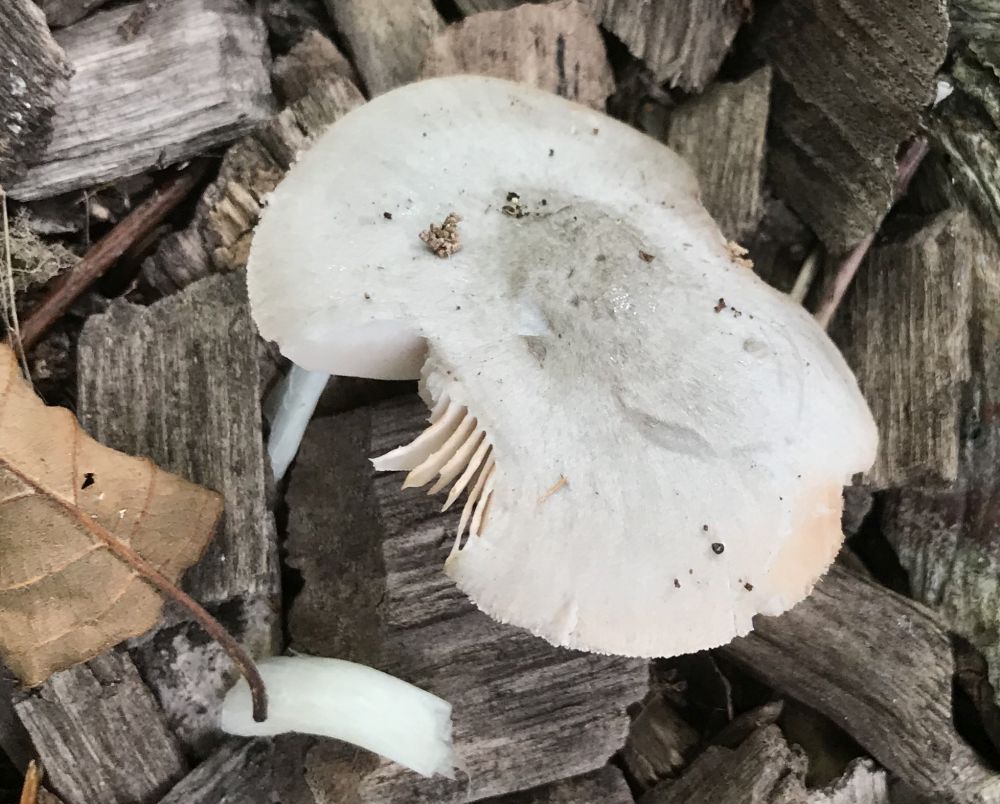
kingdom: Fungi
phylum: Basidiomycota
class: Agaricomycetes
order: Agaricales
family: Pluteaceae
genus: Pluteus
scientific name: Pluteus salicinus
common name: stiv skærmhat
